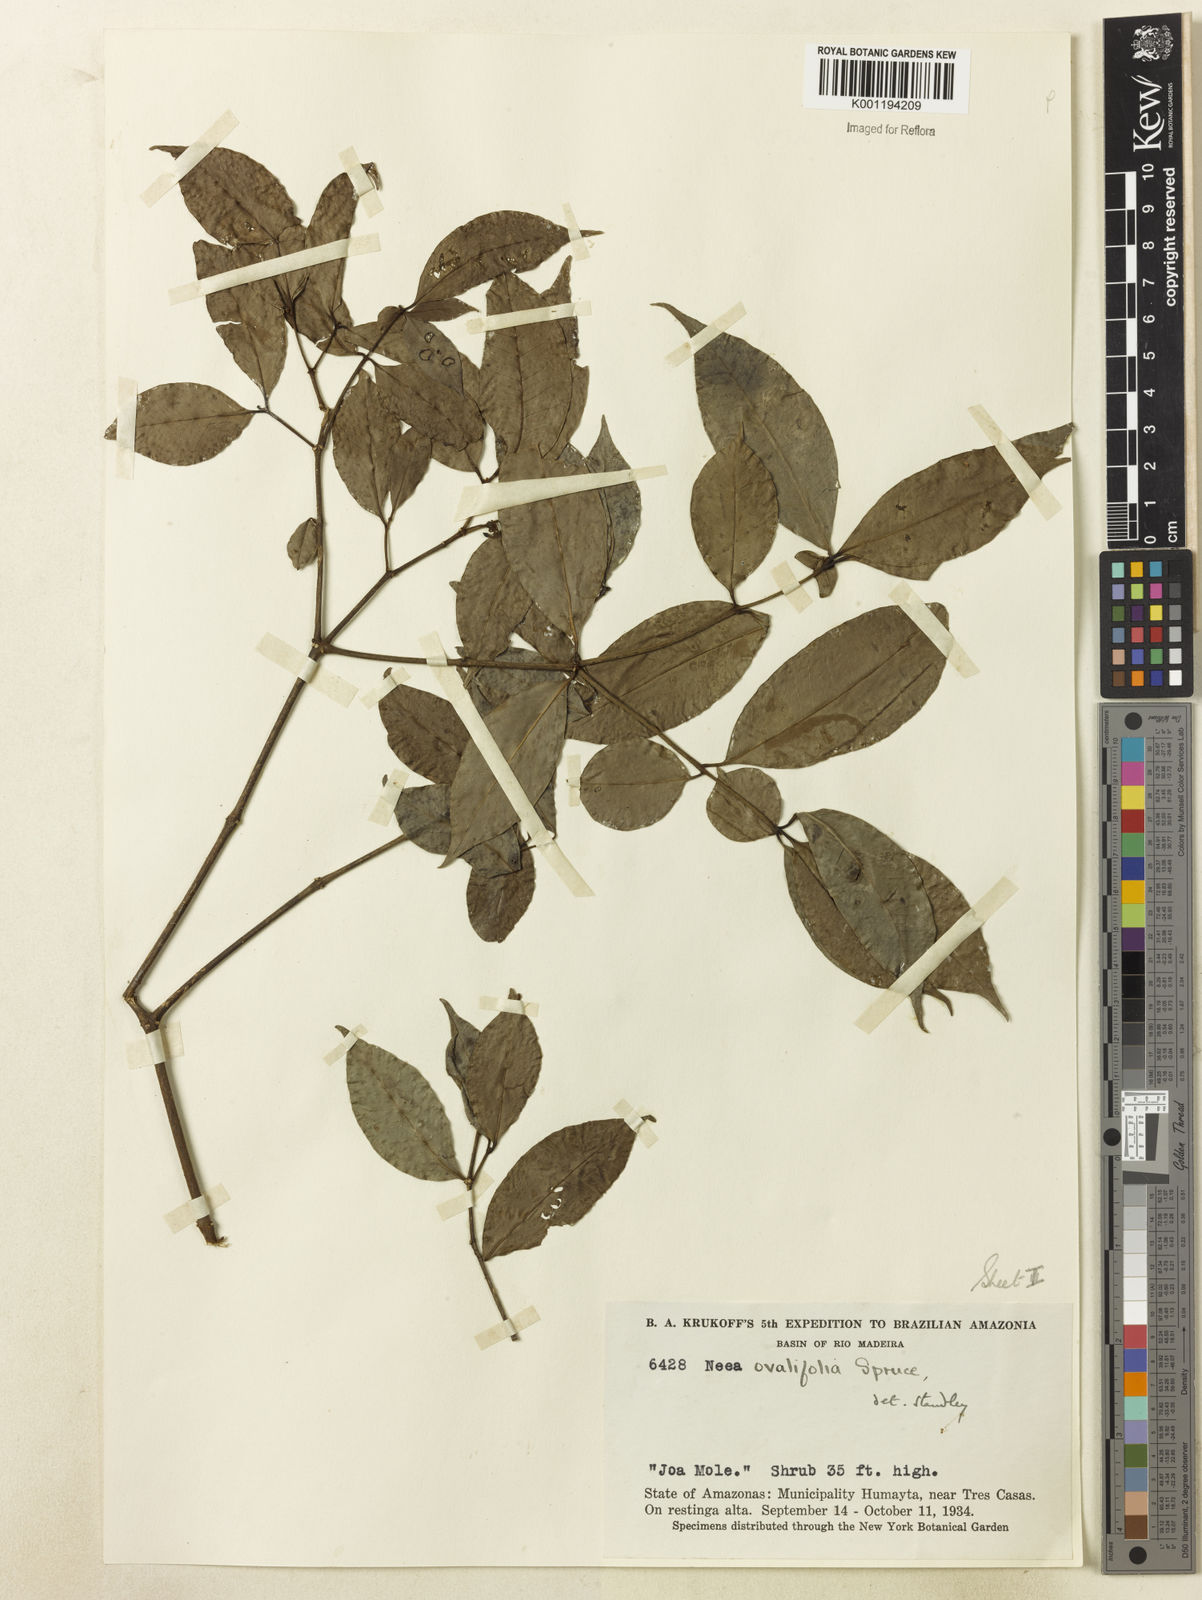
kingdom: Plantae
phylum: Tracheophyta
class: Magnoliopsida
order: Caryophyllales
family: Nyctaginaceae
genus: Neea
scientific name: Neea ovalifolia
